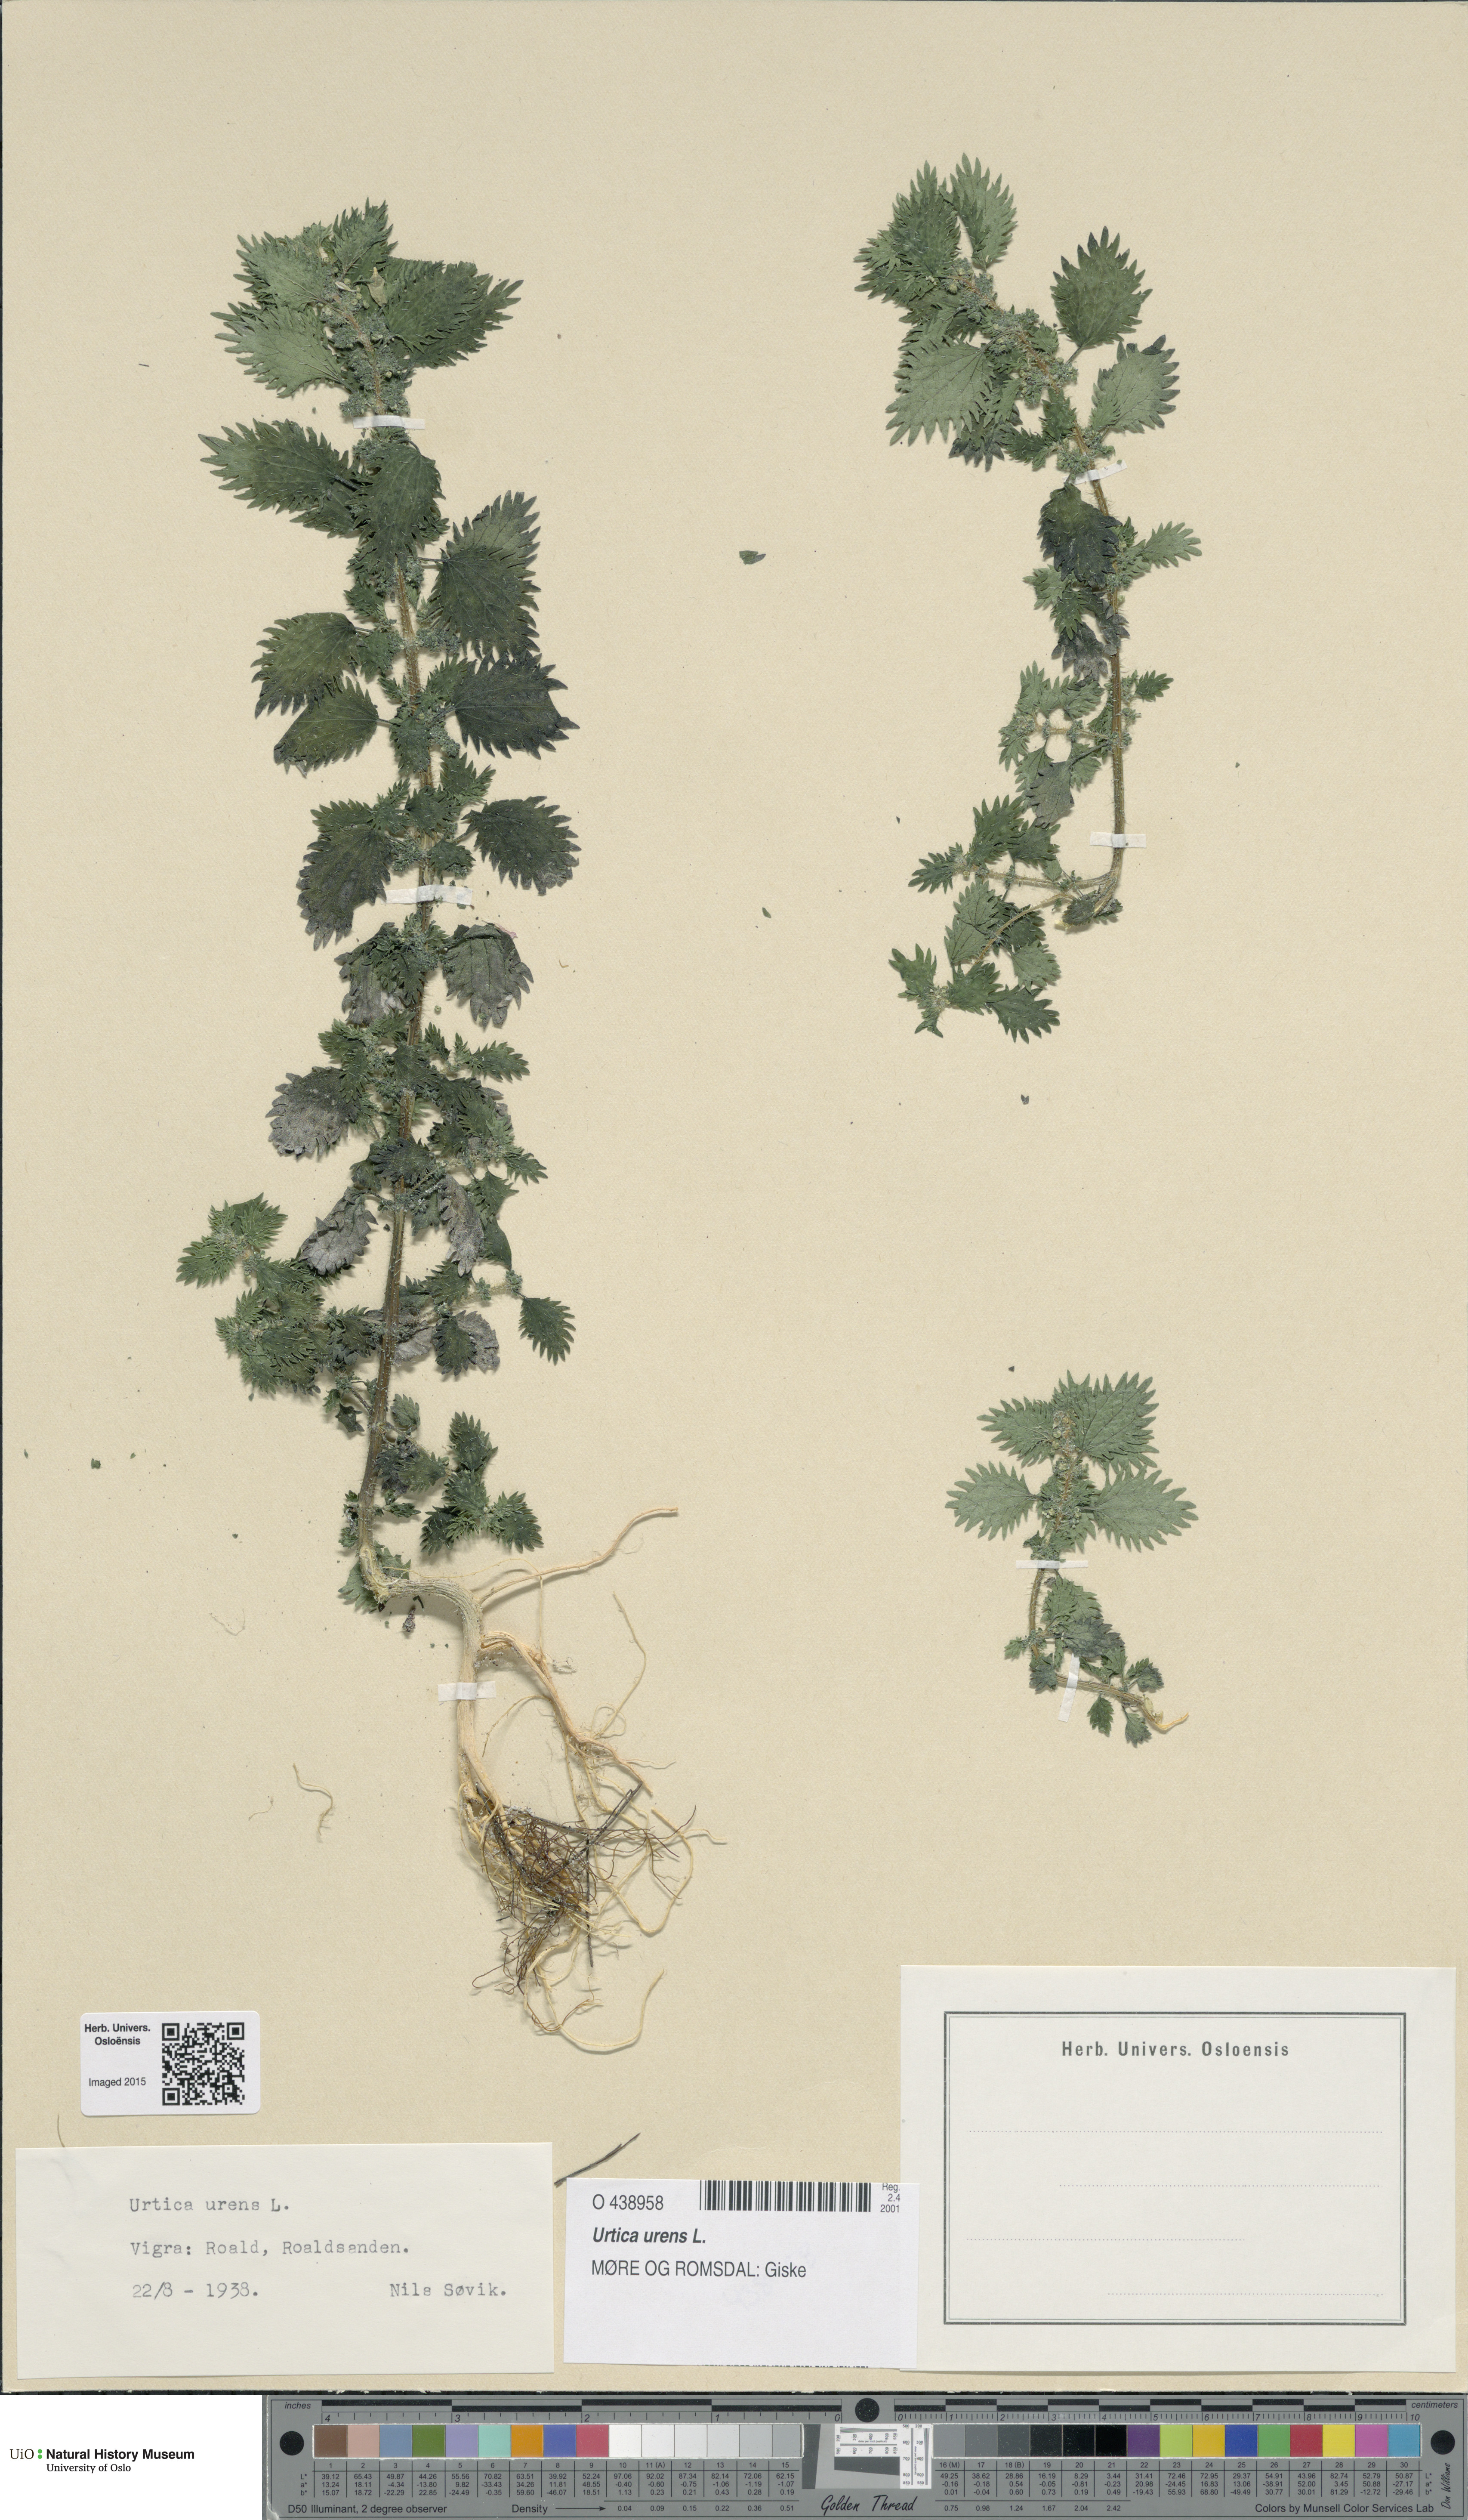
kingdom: Plantae
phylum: Tracheophyta
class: Magnoliopsida
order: Rosales
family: Urticaceae
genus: Urtica
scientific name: Urtica urens
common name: Dwarf nettle
